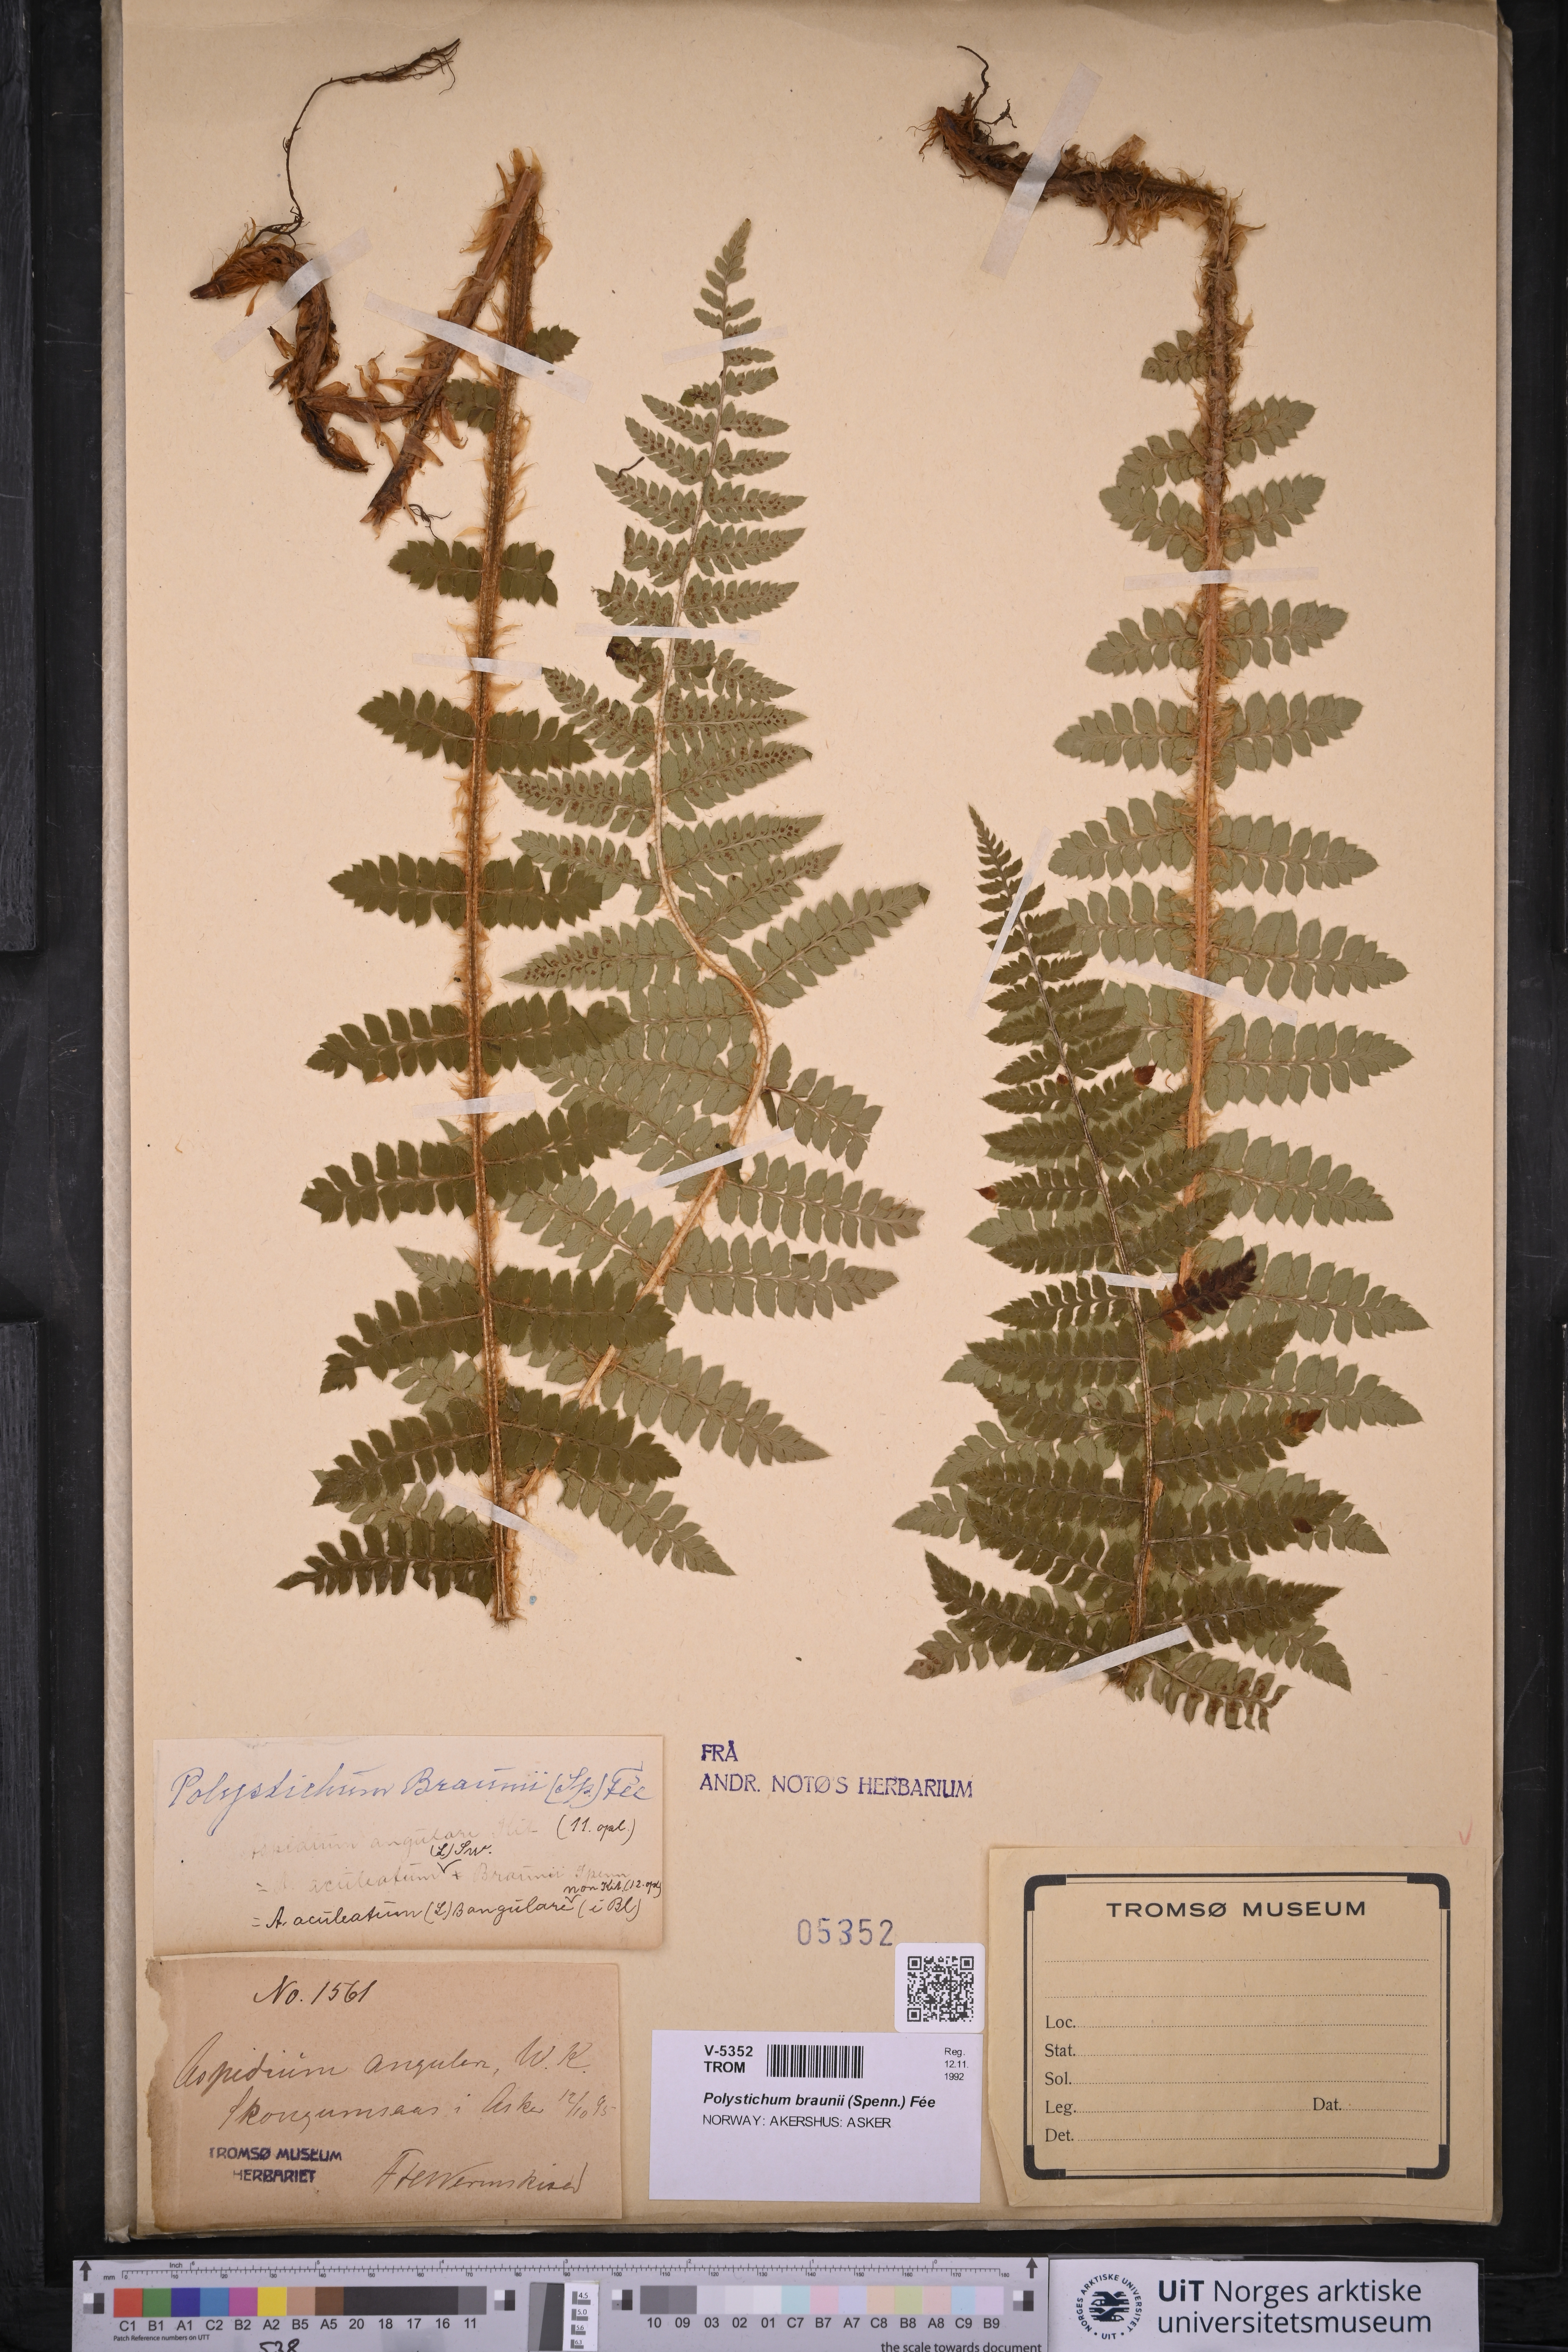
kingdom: Plantae
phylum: Tracheophyta
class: Polypodiopsida
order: Polypodiales
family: Dryopteridaceae
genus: Polystichum
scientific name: Polystichum braunii
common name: Braun's holly fern
